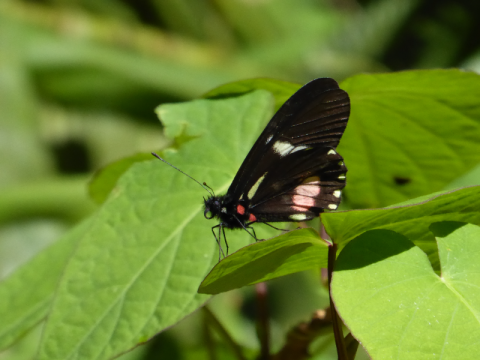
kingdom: Animalia
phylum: Arthropoda
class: Insecta
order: Lepidoptera
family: Pieridae
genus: Archonias
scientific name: Archonias brassolis
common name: Cattleheart White
